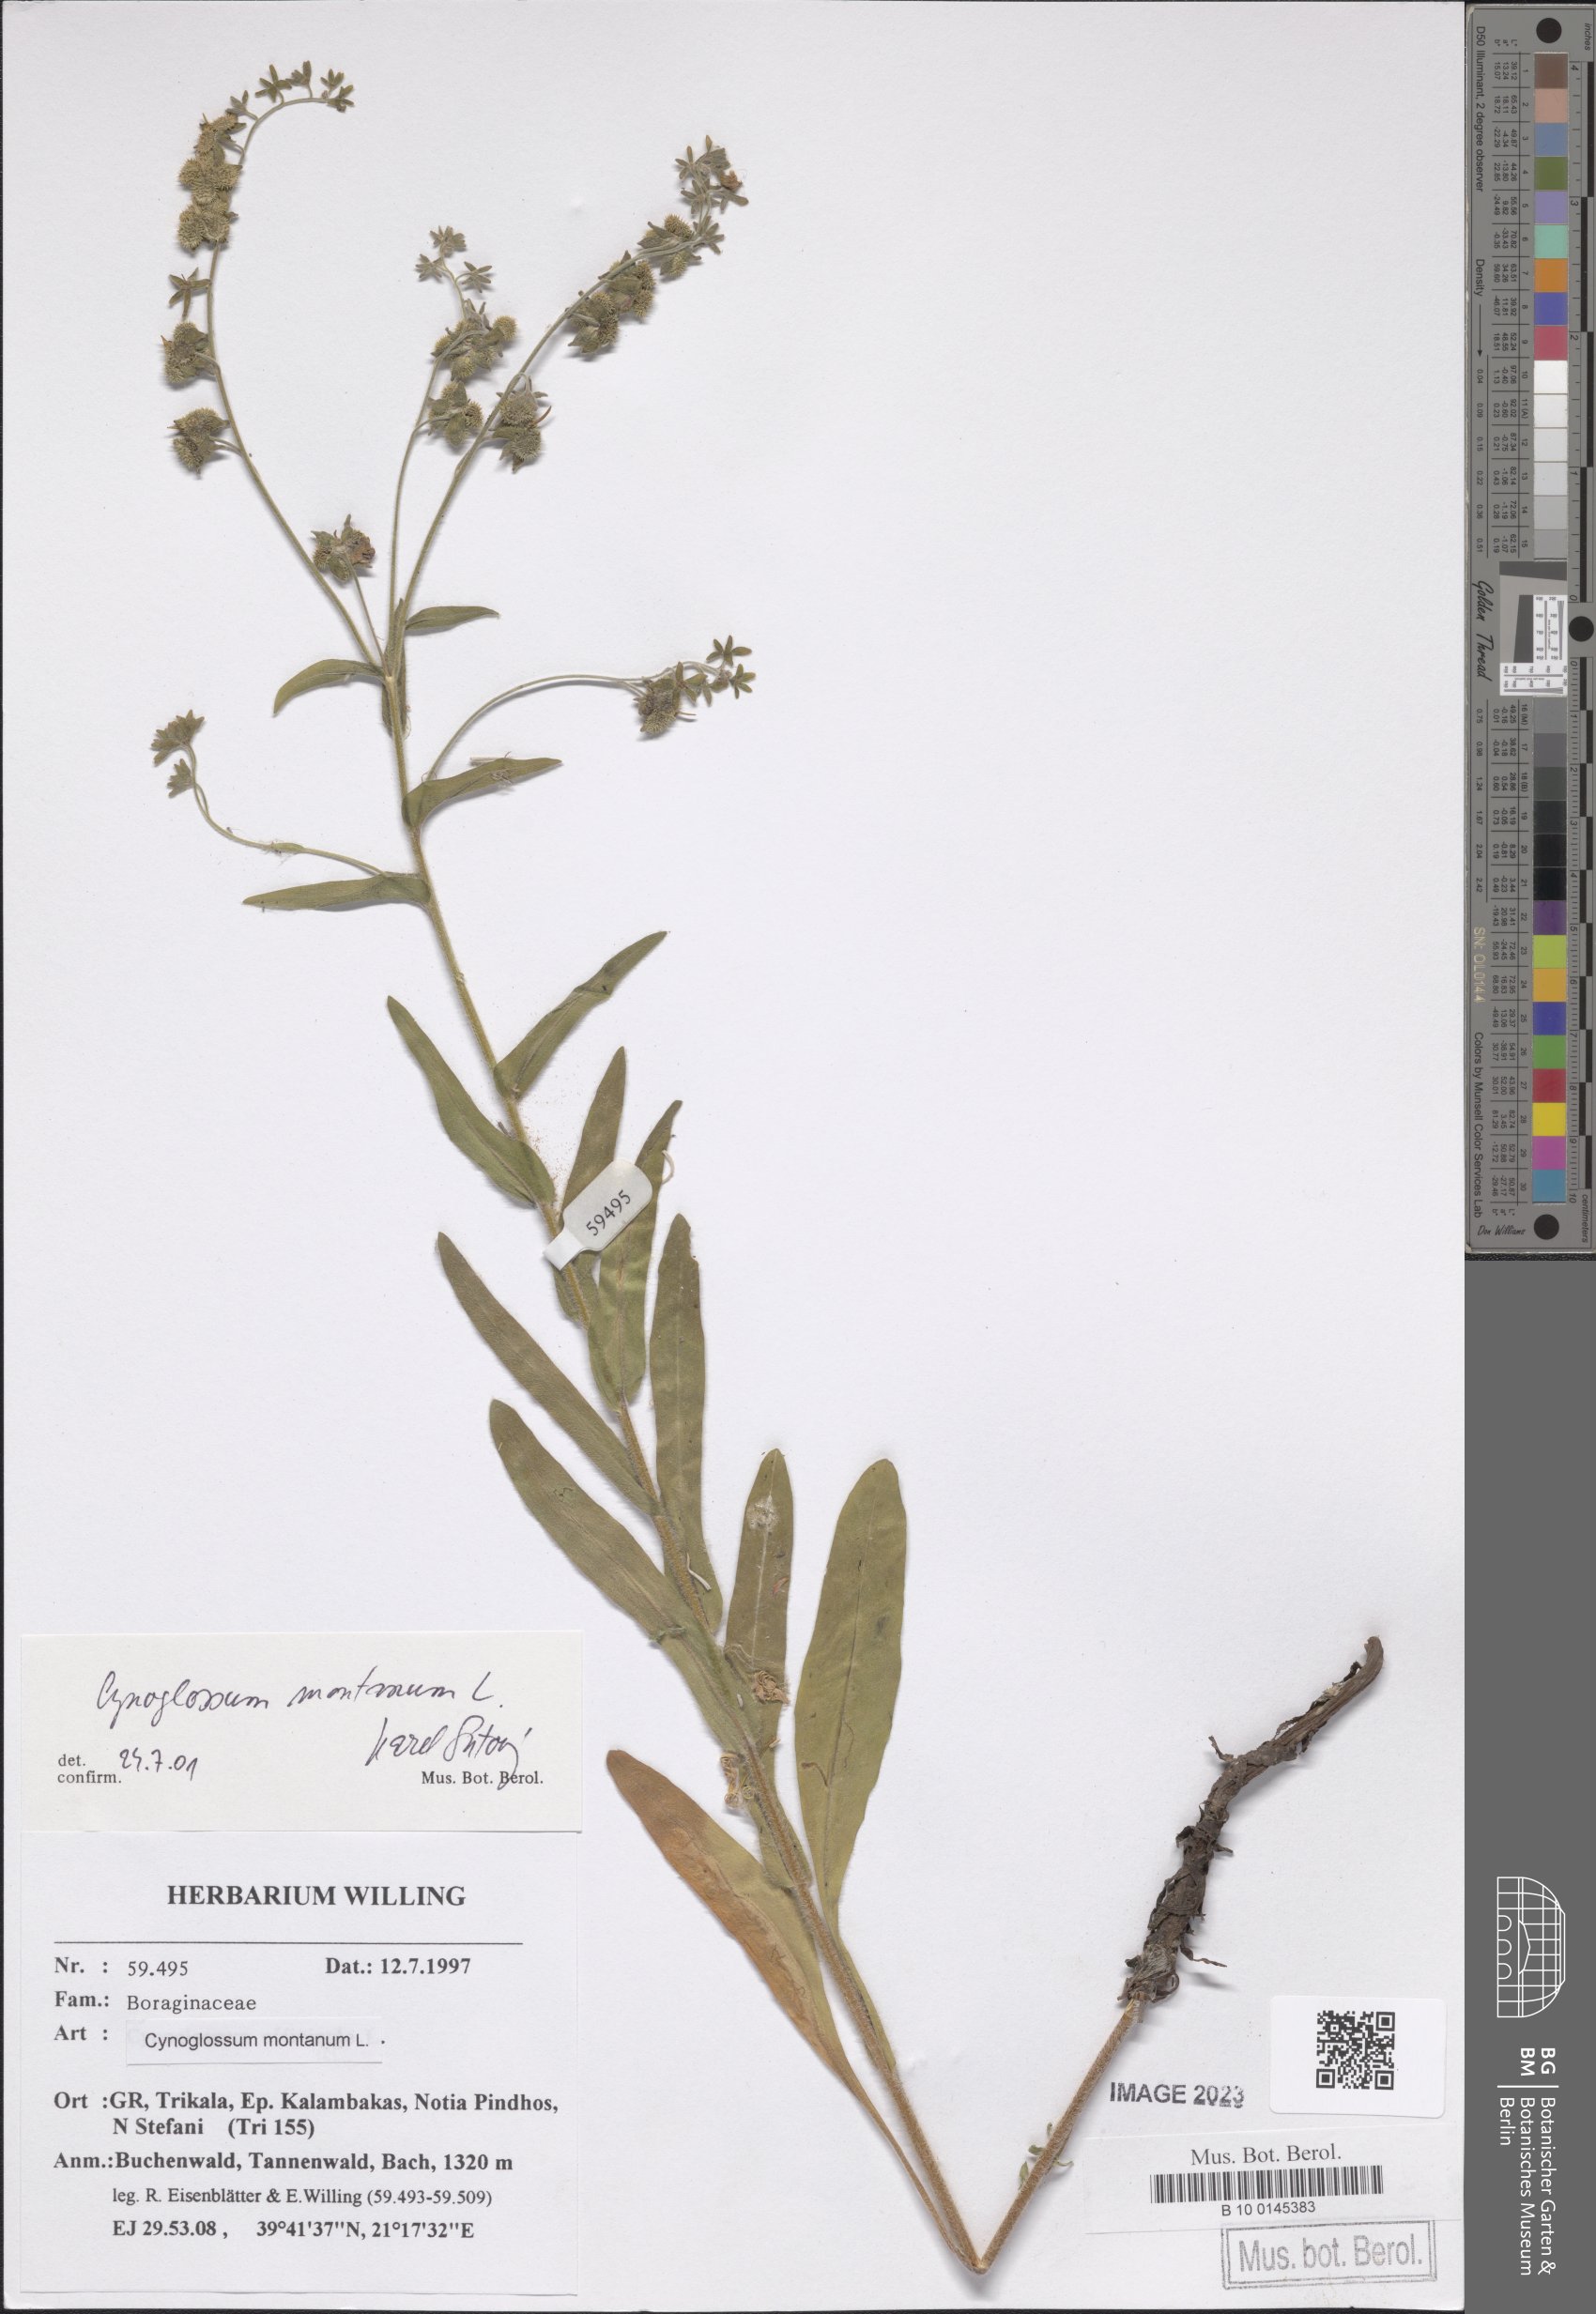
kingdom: Plantae
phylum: Tracheophyta
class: Magnoliopsida
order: Boraginales
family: Boraginaceae
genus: Cynoglossum
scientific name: Cynoglossum montanum
